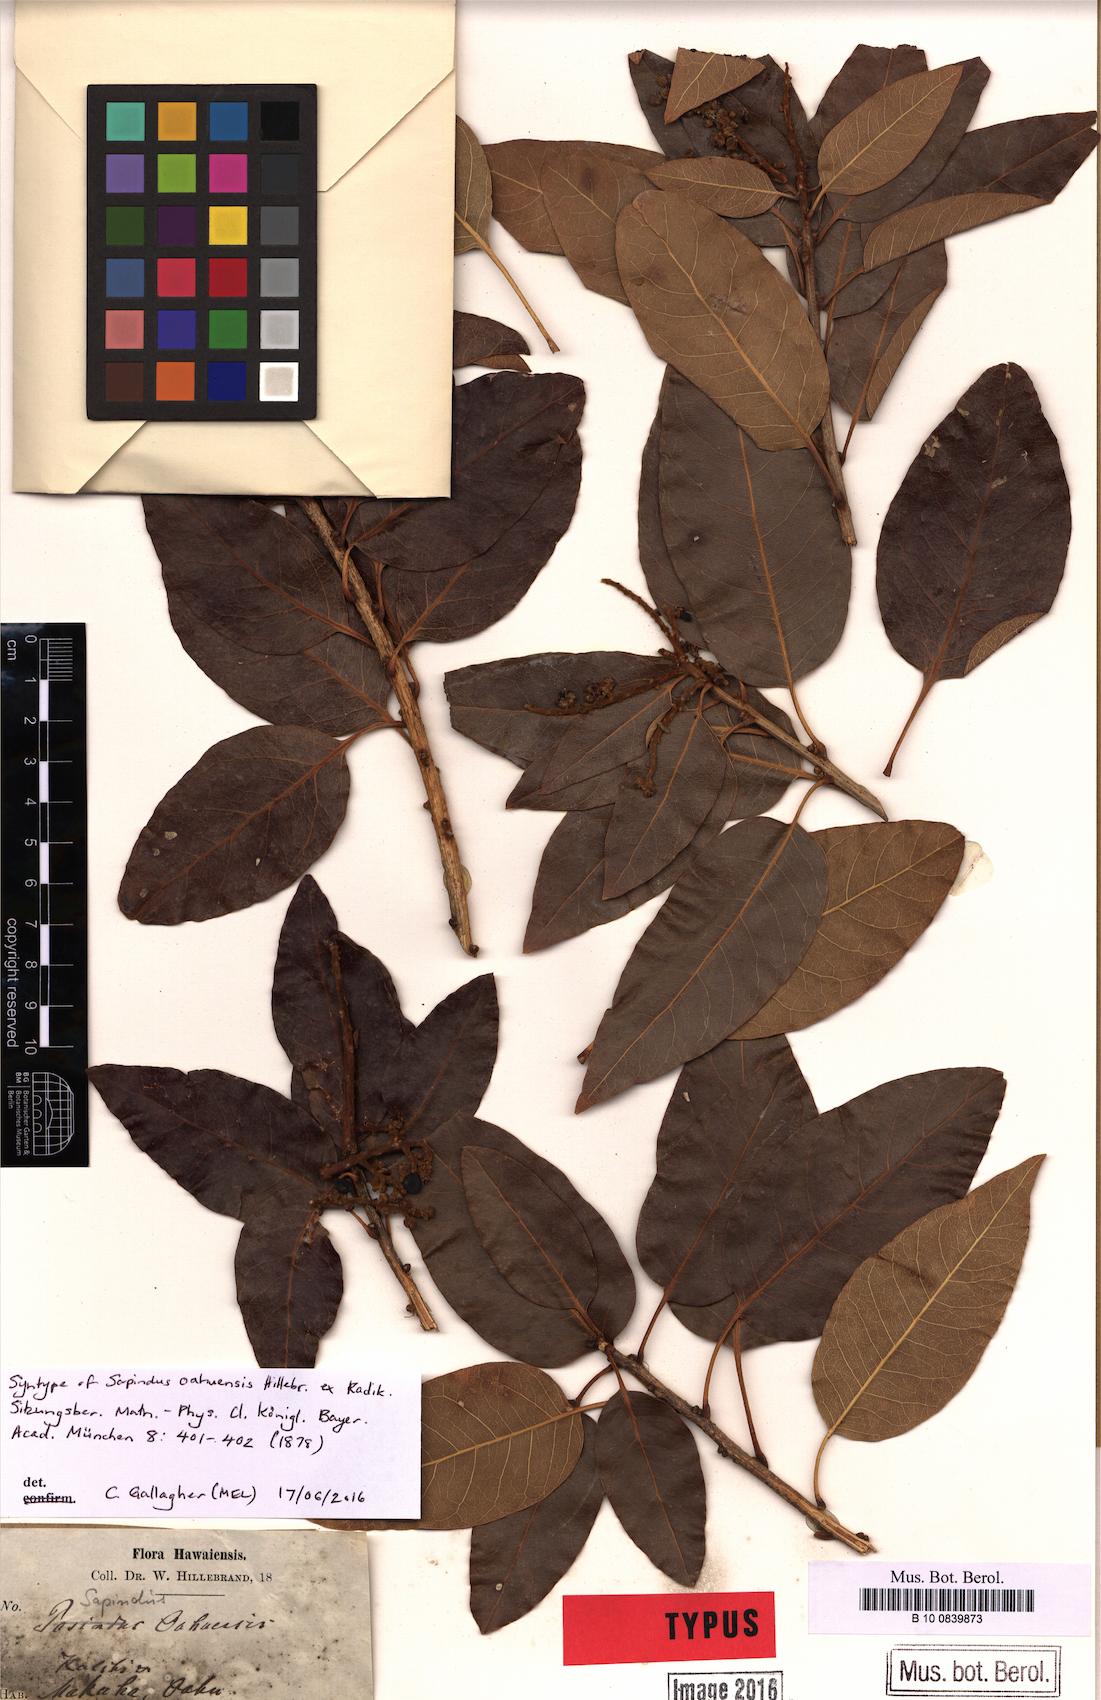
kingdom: Plantae
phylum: Tracheophyta
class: Magnoliopsida
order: Sapindales
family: Sapindaceae
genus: Sapindus
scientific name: Sapindus oahuensis
